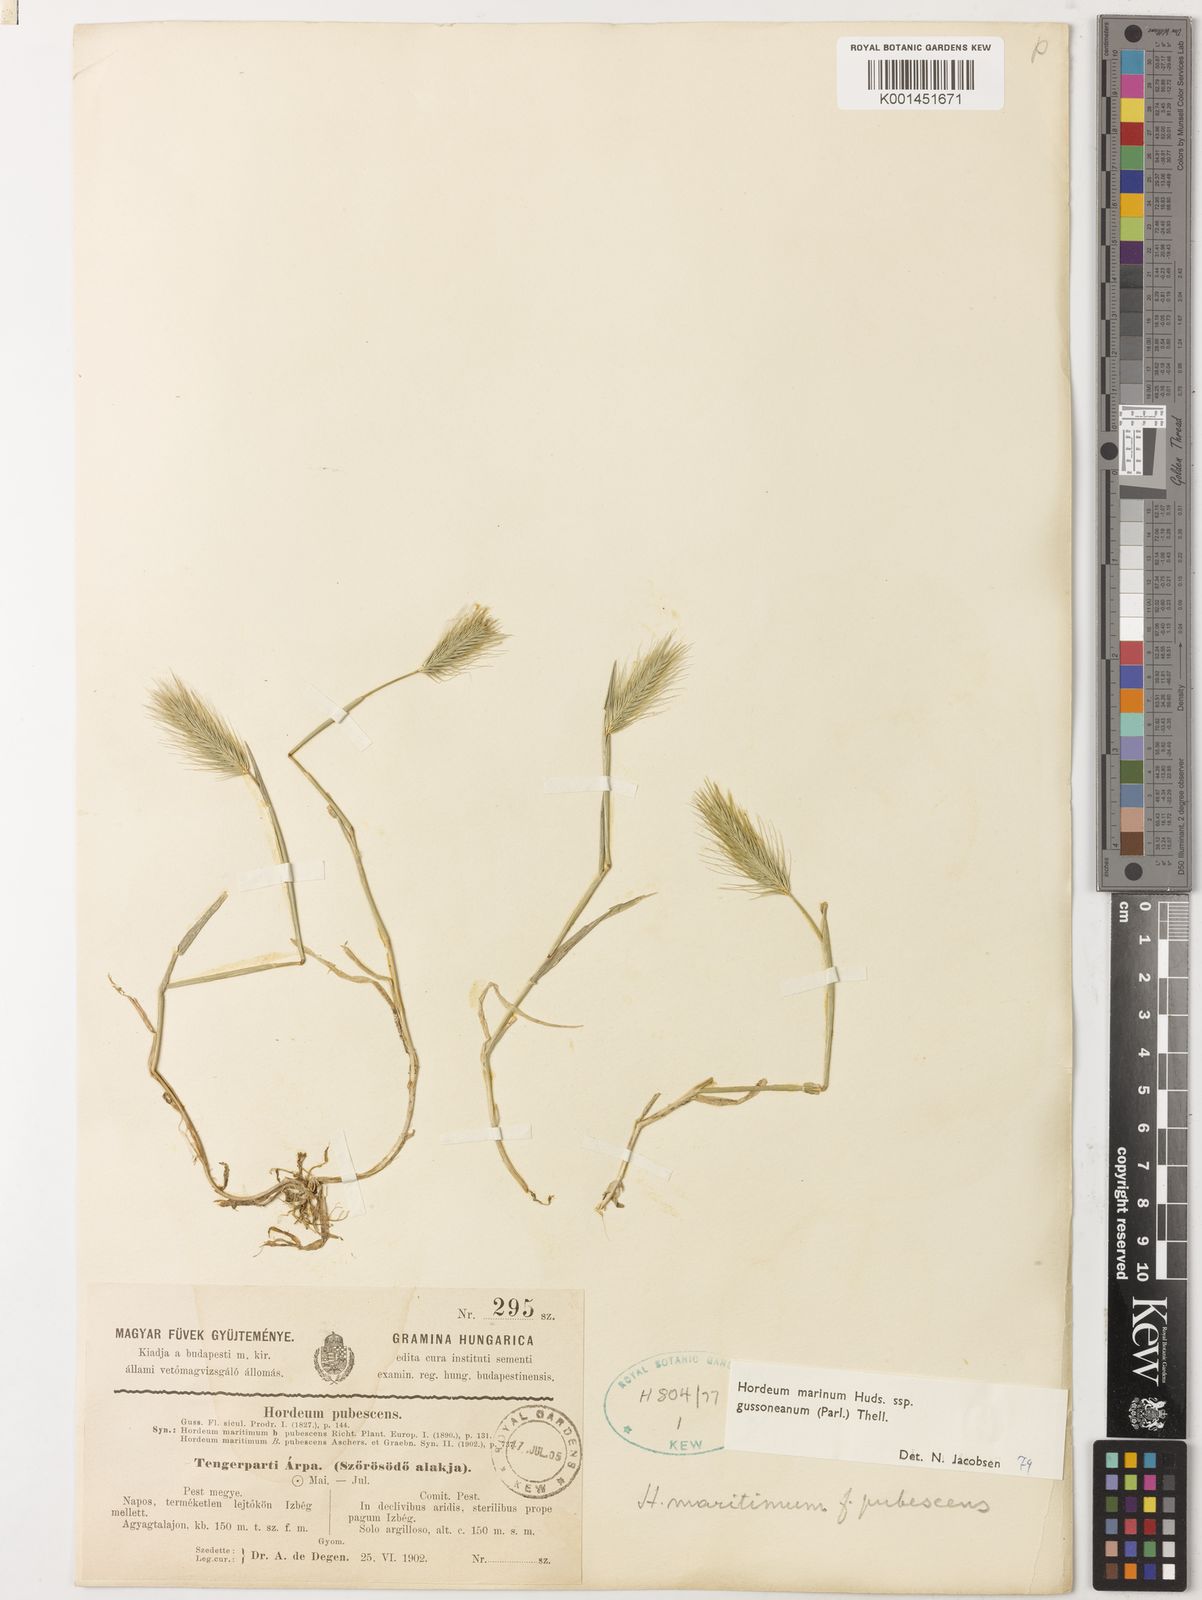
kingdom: Plantae
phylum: Tracheophyta
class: Liliopsida
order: Poales
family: Poaceae
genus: Hordeum
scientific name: Hordeum marinum
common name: Sea barley
